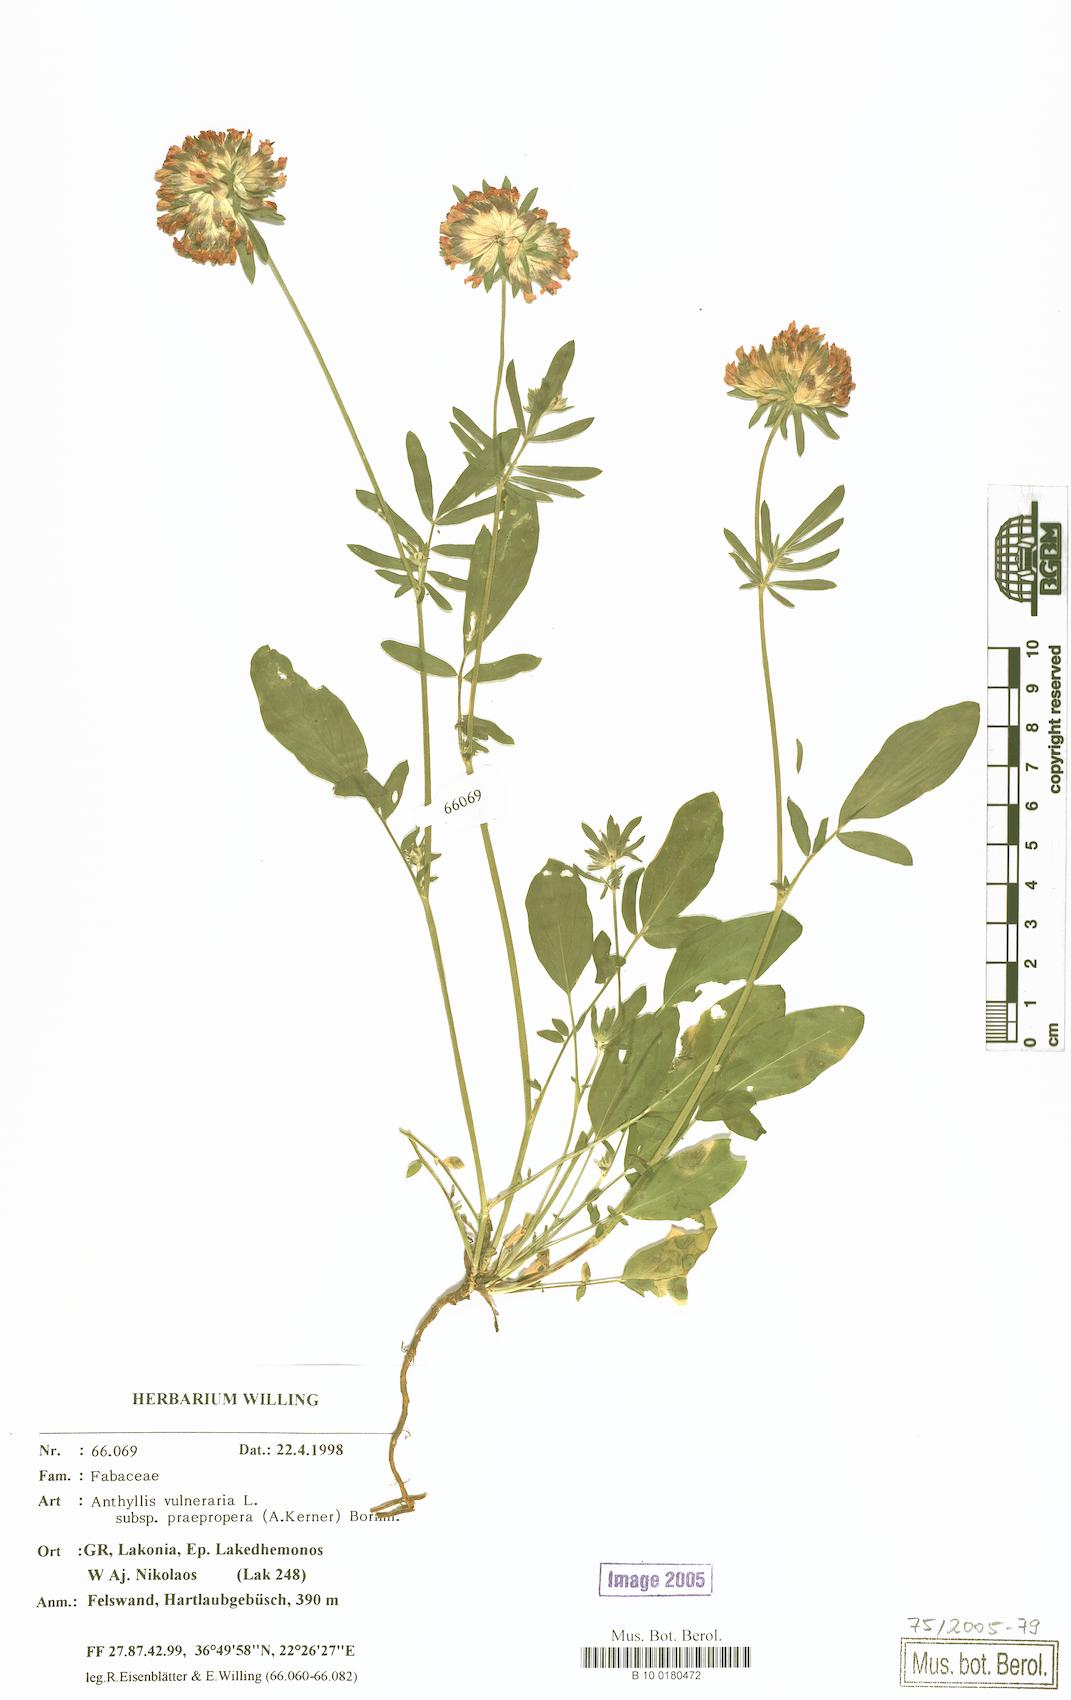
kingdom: Plantae
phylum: Tracheophyta
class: Magnoliopsida
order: Fabales
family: Fabaceae
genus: Anthyllis
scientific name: Anthyllis vulneraria
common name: Kidney vetch
